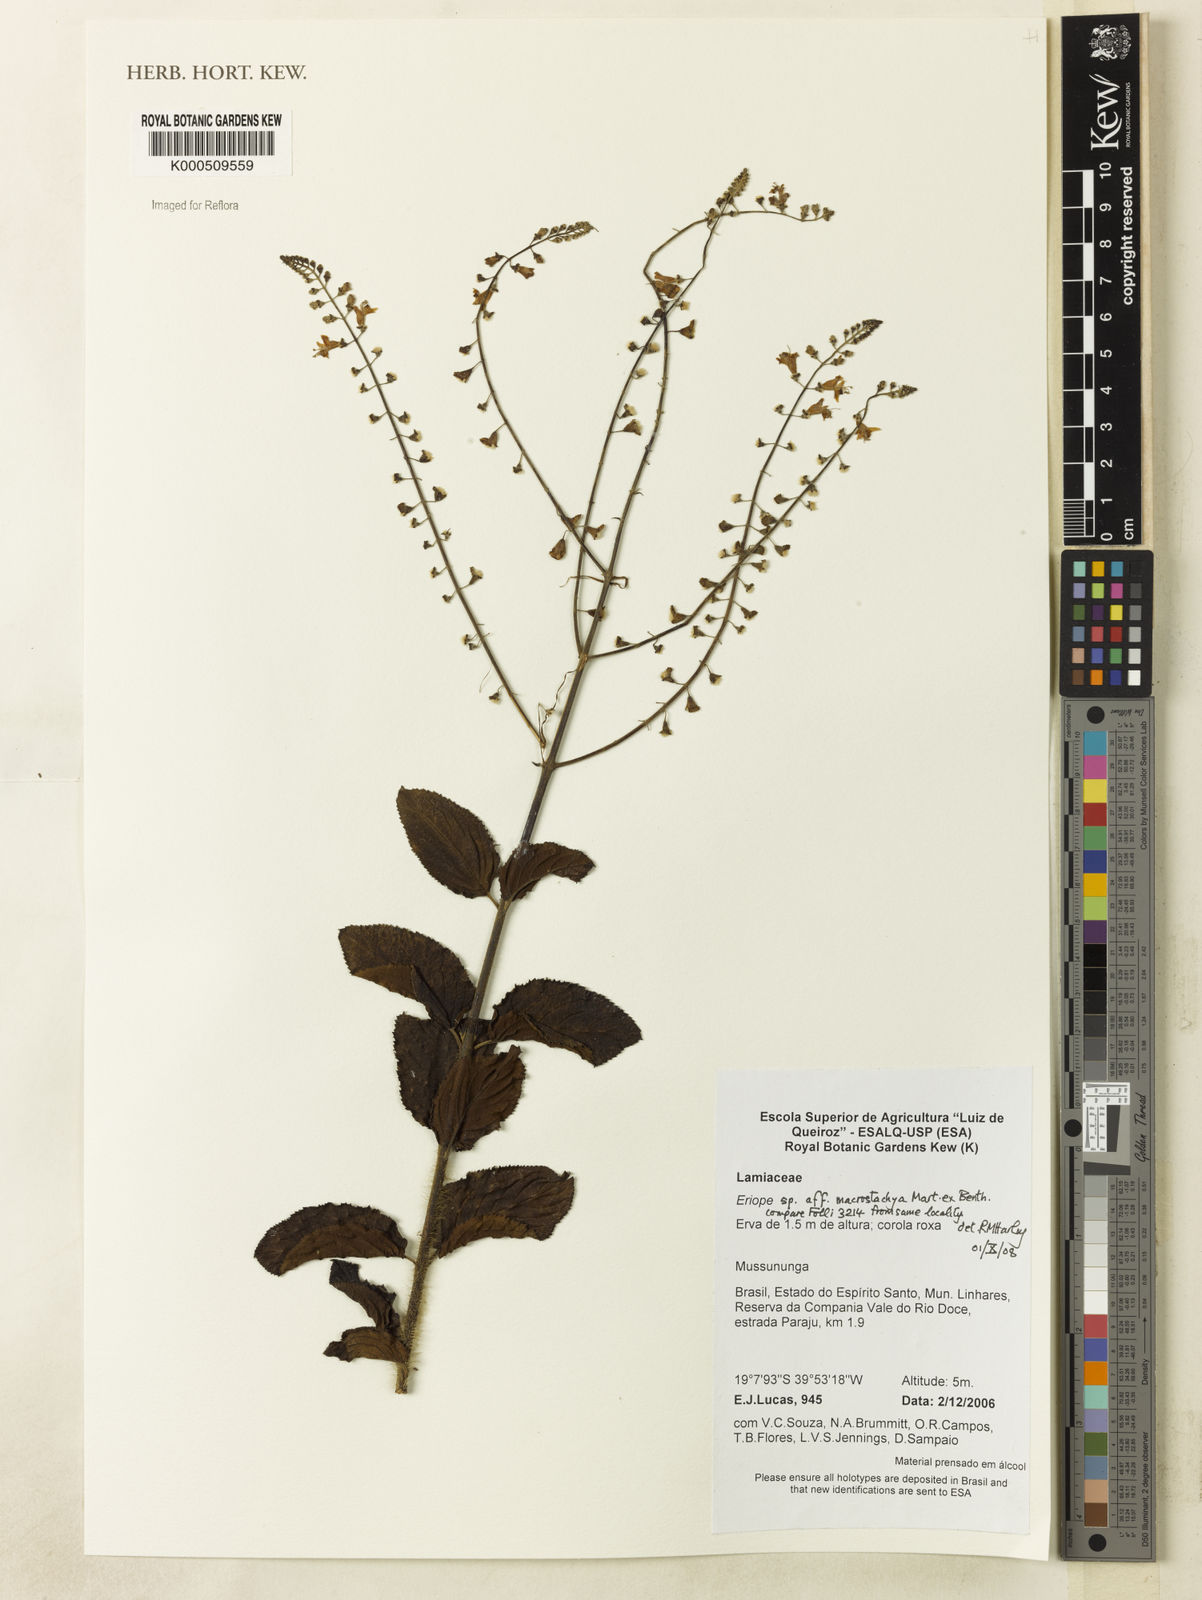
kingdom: Plantae
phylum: Tracheophyta
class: Magnoliopsida
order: Lamiales
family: Lamiaceae
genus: Eriope
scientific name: Eriope
